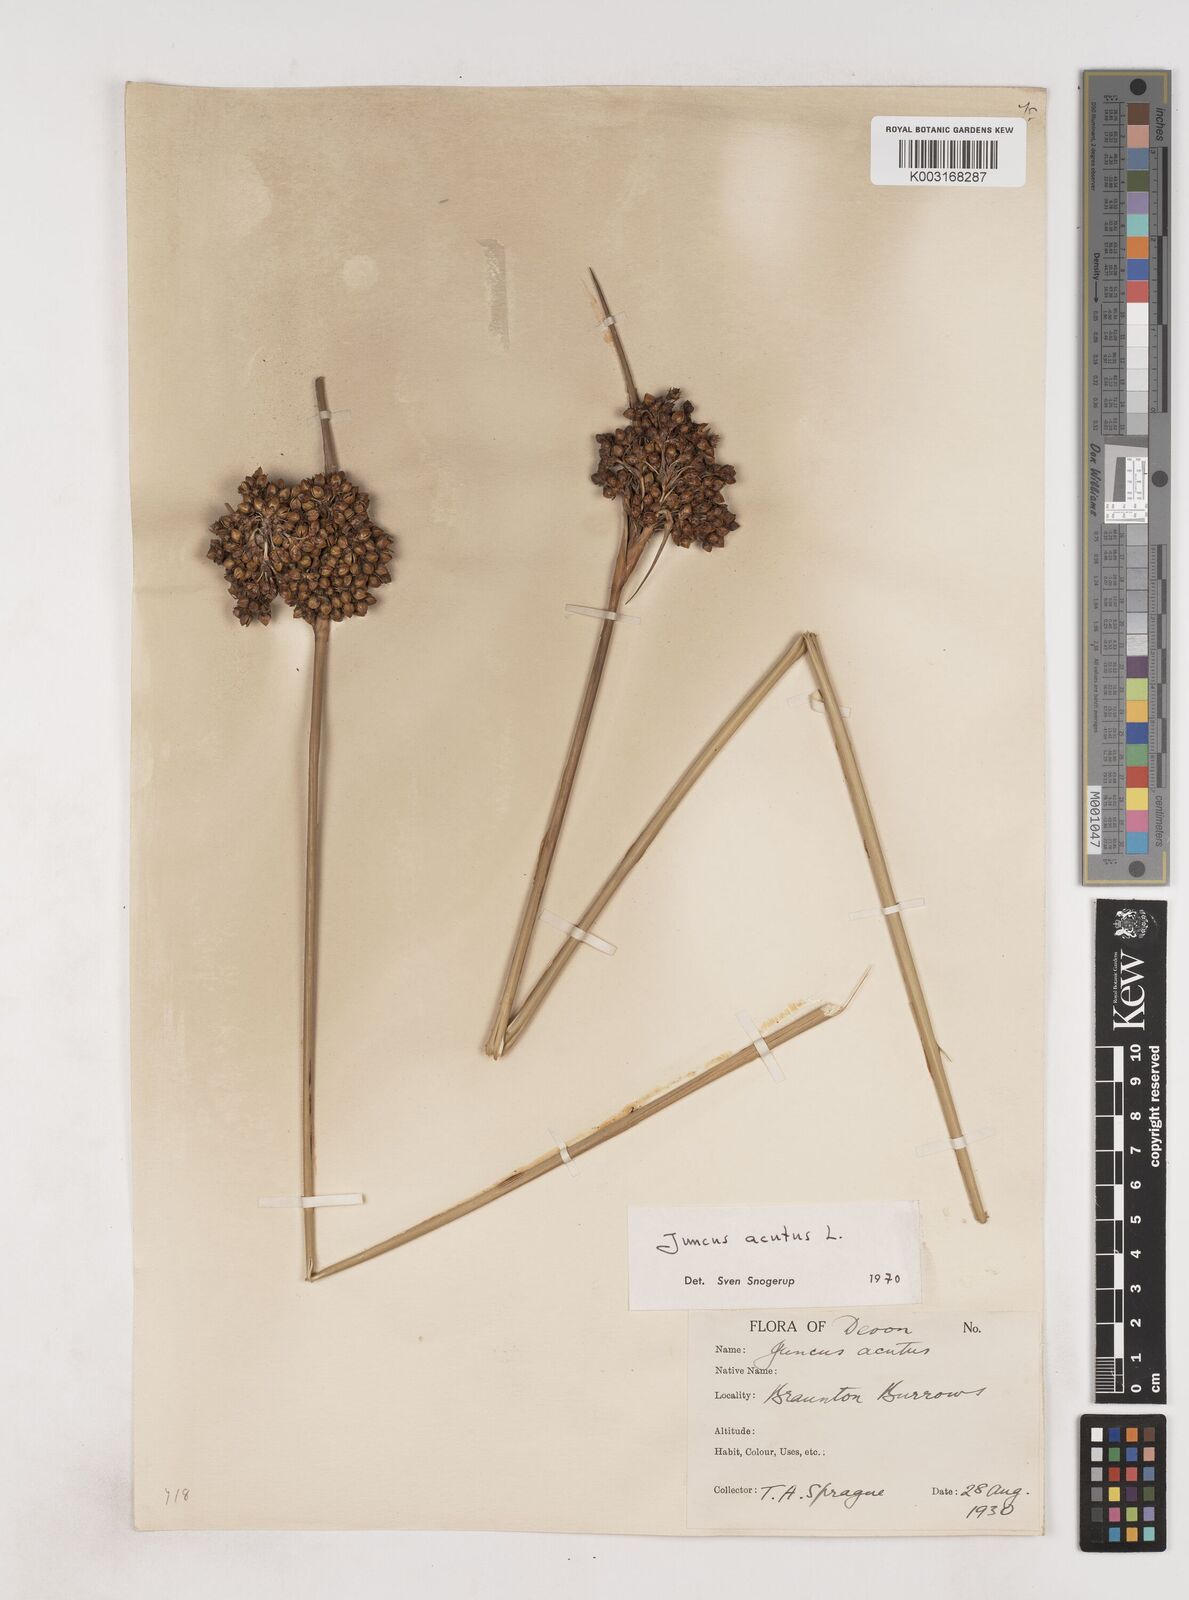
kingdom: Plantae
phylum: Tracheophyta
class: Liliopsida
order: Poales
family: Juncaceae
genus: Juncus
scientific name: Juncus acutus
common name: Sharp rush
